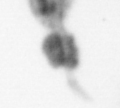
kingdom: Animalia
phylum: Annelida
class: Polychaeta
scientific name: Polychaeta
